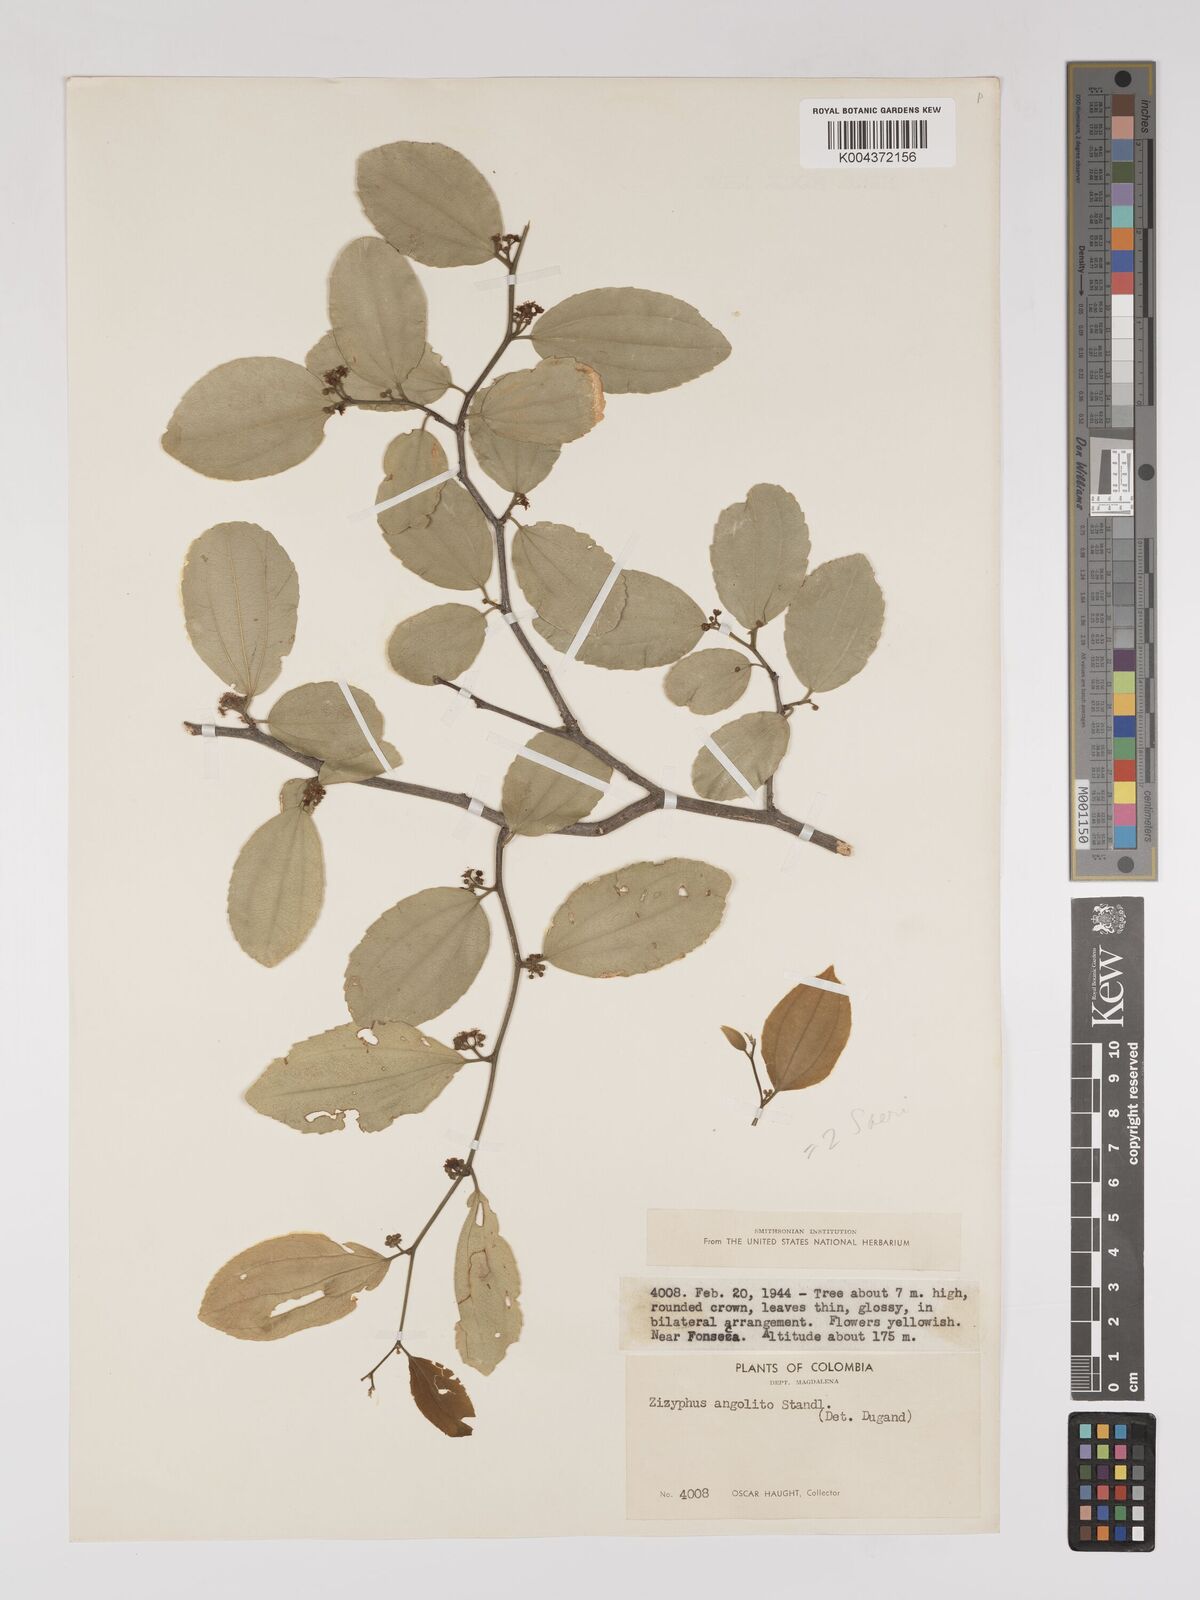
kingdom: Plantae
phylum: Tracheophyta
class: Magnoliopsida
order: Rosales
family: Rhamnaceae
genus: Sarcomphalus
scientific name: Sarcomphalus saeri
